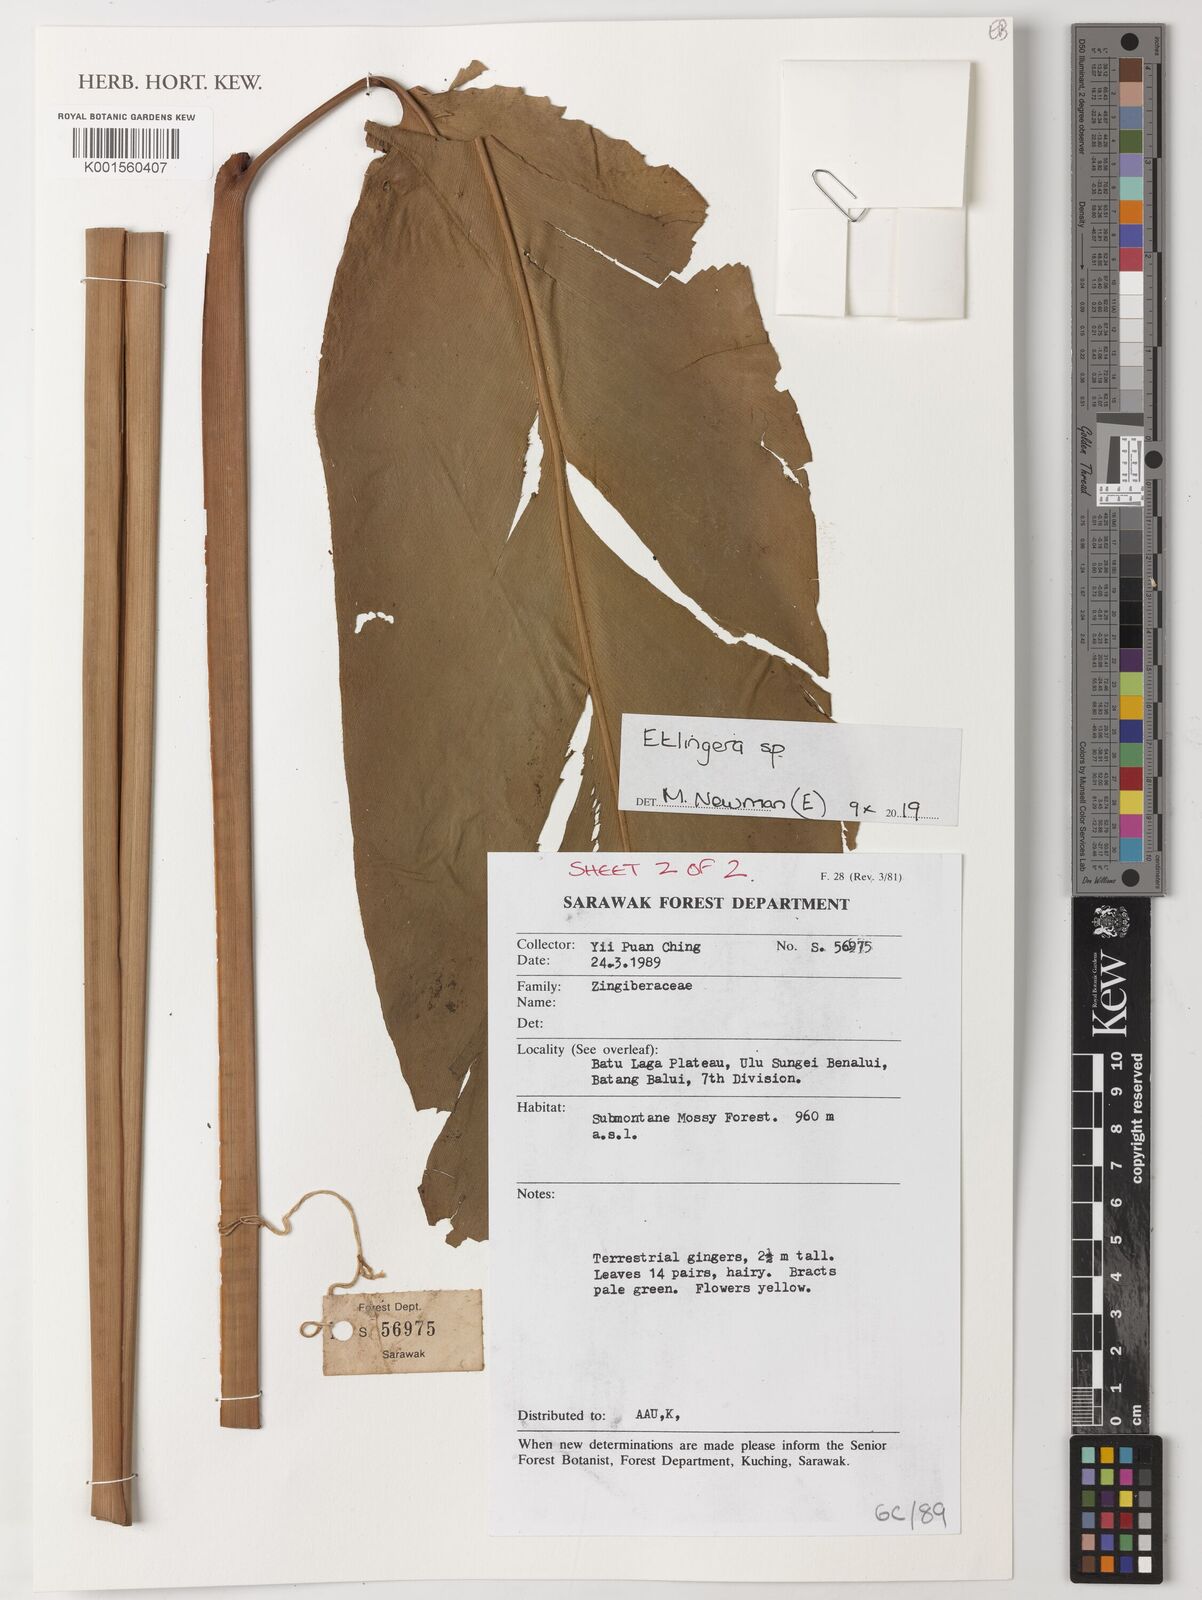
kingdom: Plantae
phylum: Tracheophyta
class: Liliopsida
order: Zingiberales
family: Zingiberaceae
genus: Etlingera
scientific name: Etlingera
